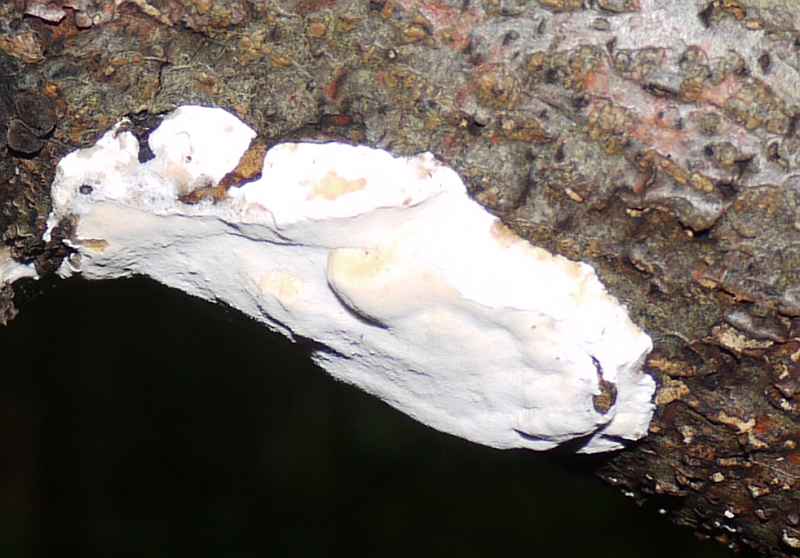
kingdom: Fungi
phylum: Basidiomycota
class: Agaricomycetes
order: Polyporales
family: Incrustoporiaceae
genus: Skeletocutis
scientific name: Skeletocutis nemoralis
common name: stor krystalporesvamp
